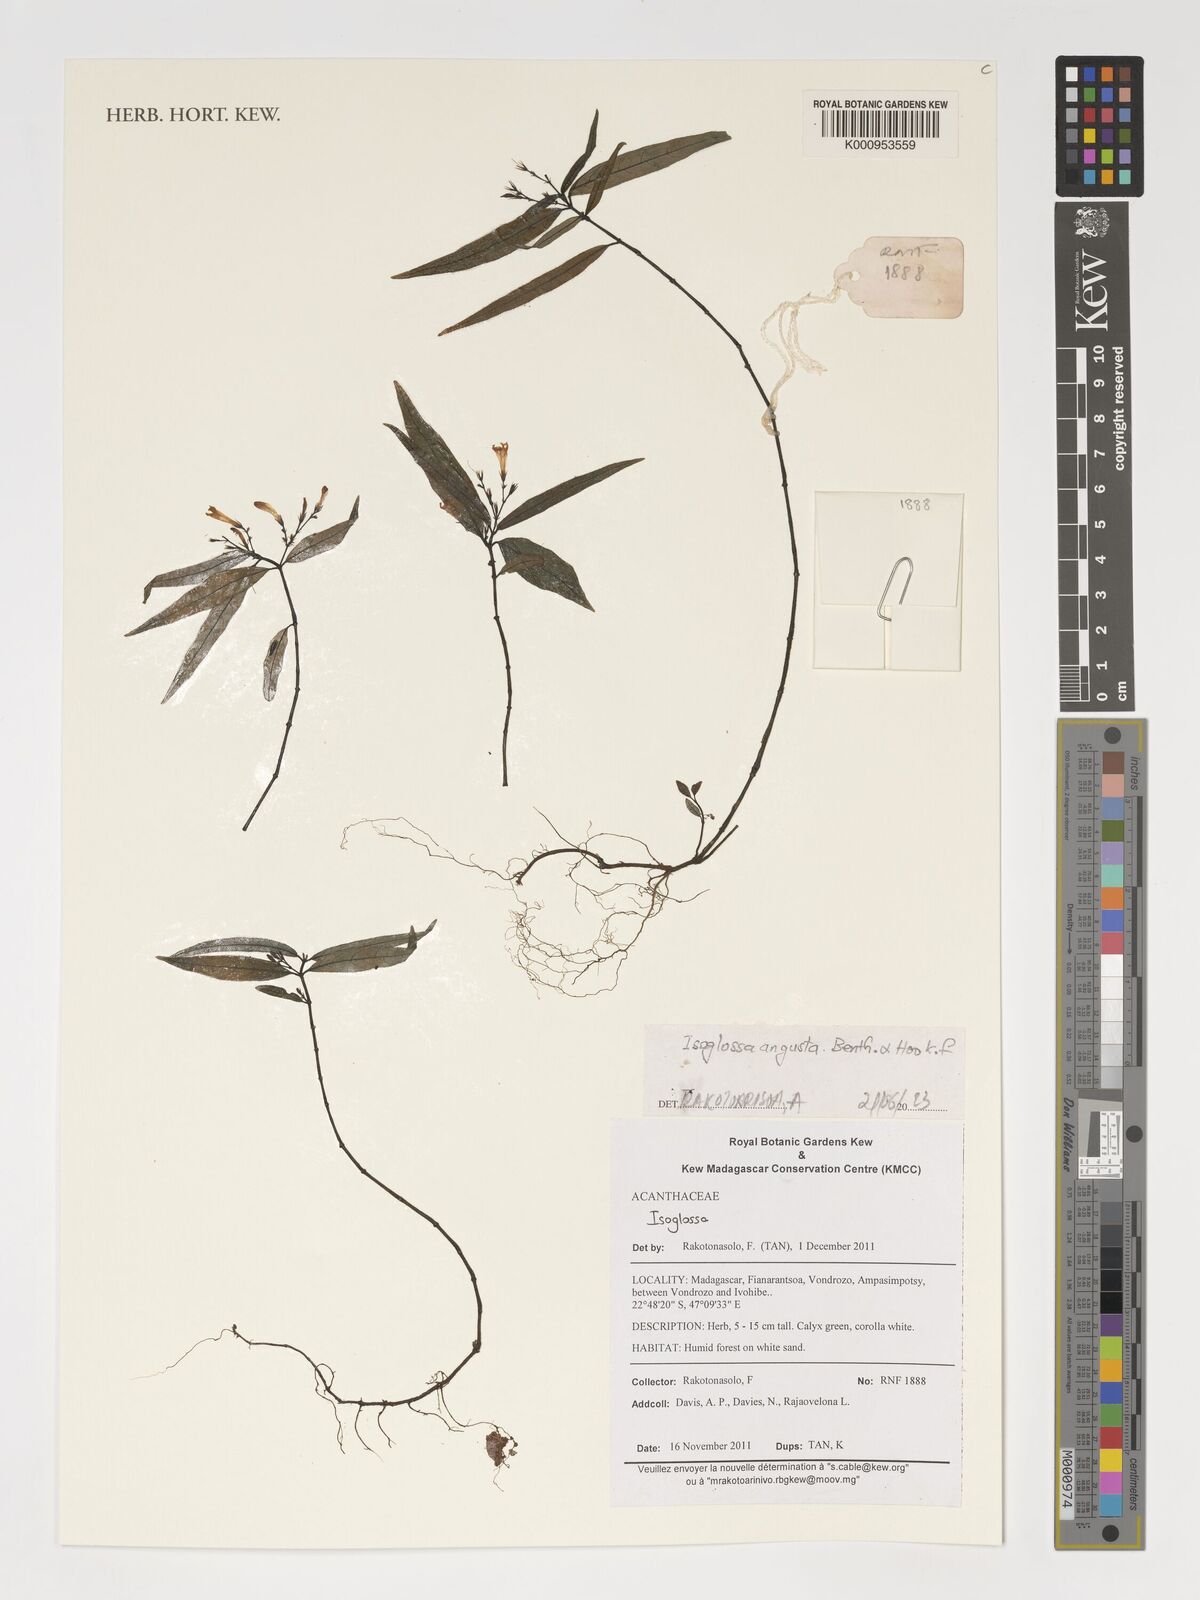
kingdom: Plantae
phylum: Tracheophyta
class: Magnoliopsida
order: Lamiales
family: Acanthaceae
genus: Isoglossa
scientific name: Isoglossa angusta
